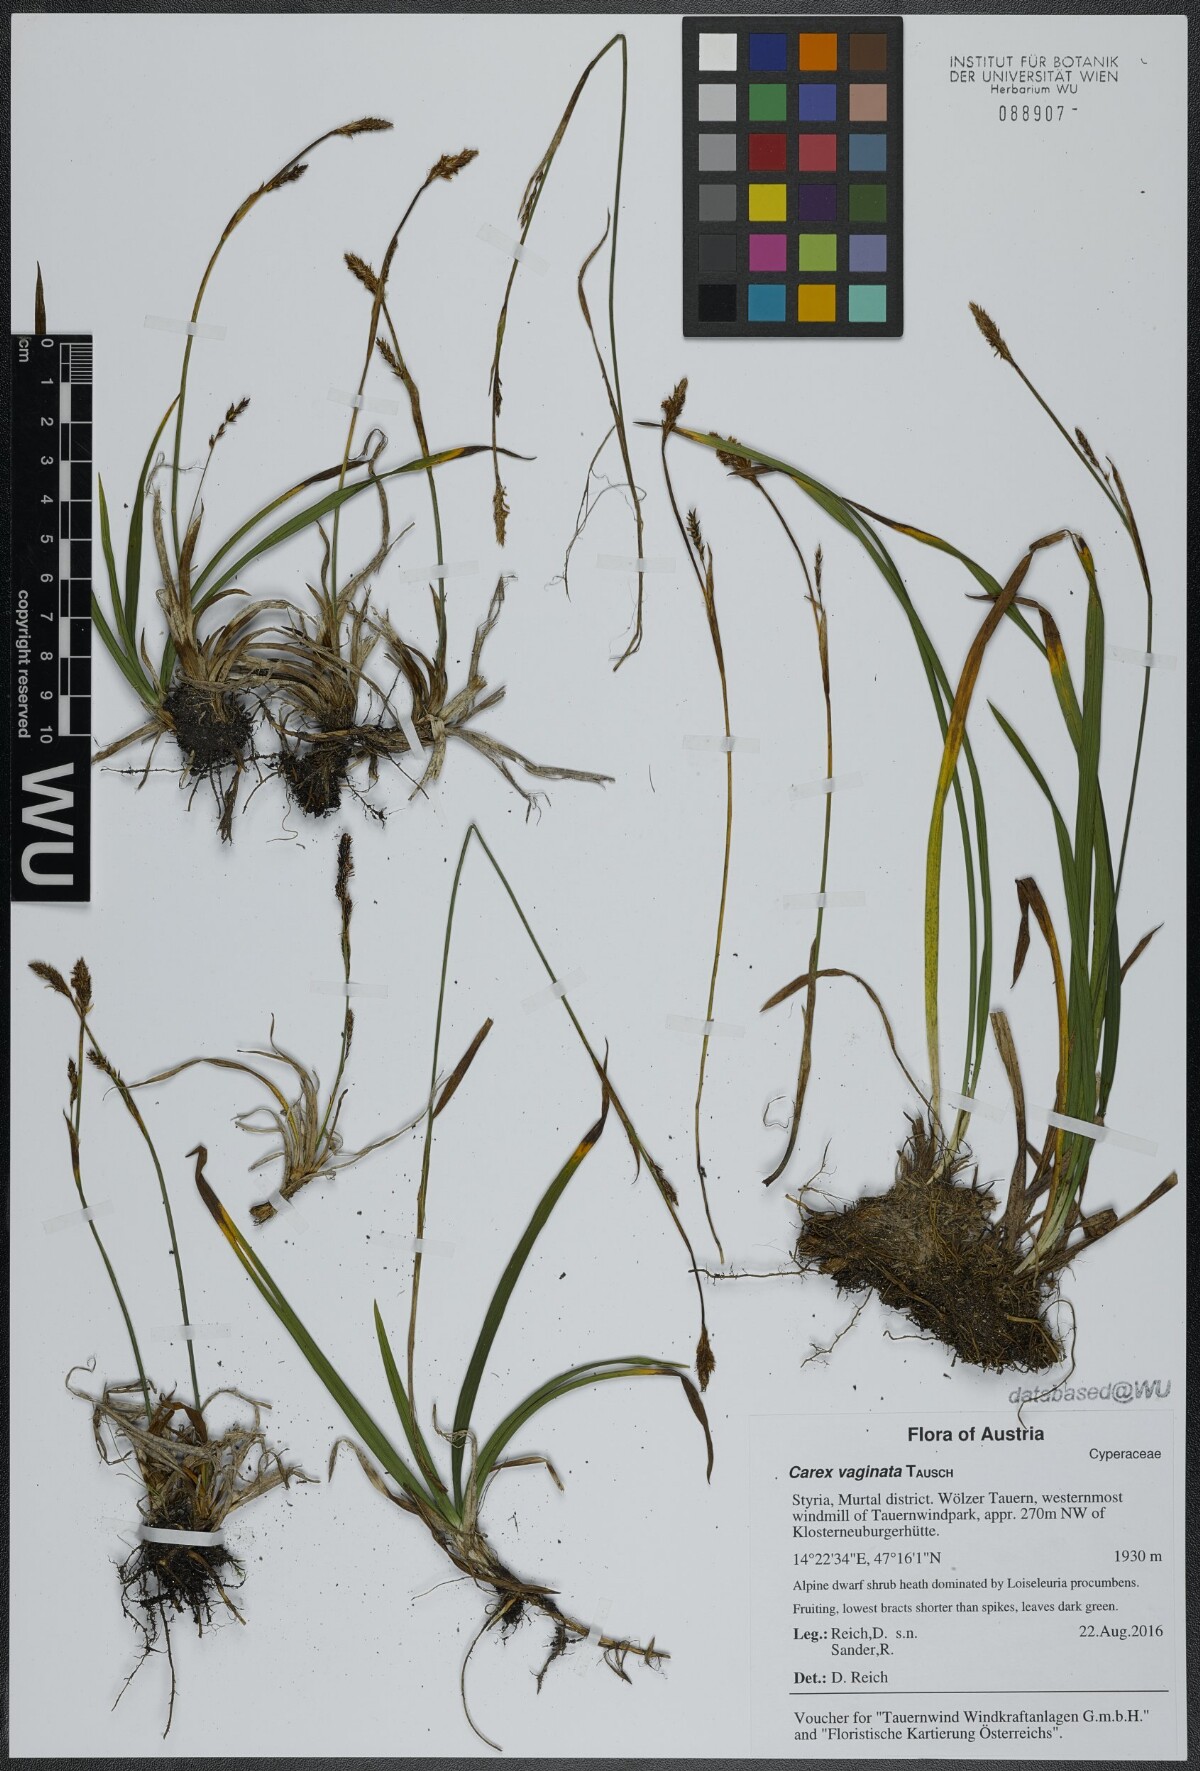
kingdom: Plantae
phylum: Tracheophyta
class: Liliopsida
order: Poales
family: Cyperaceae
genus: Carex
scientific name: Carex vaginata
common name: Sheathed sedge
